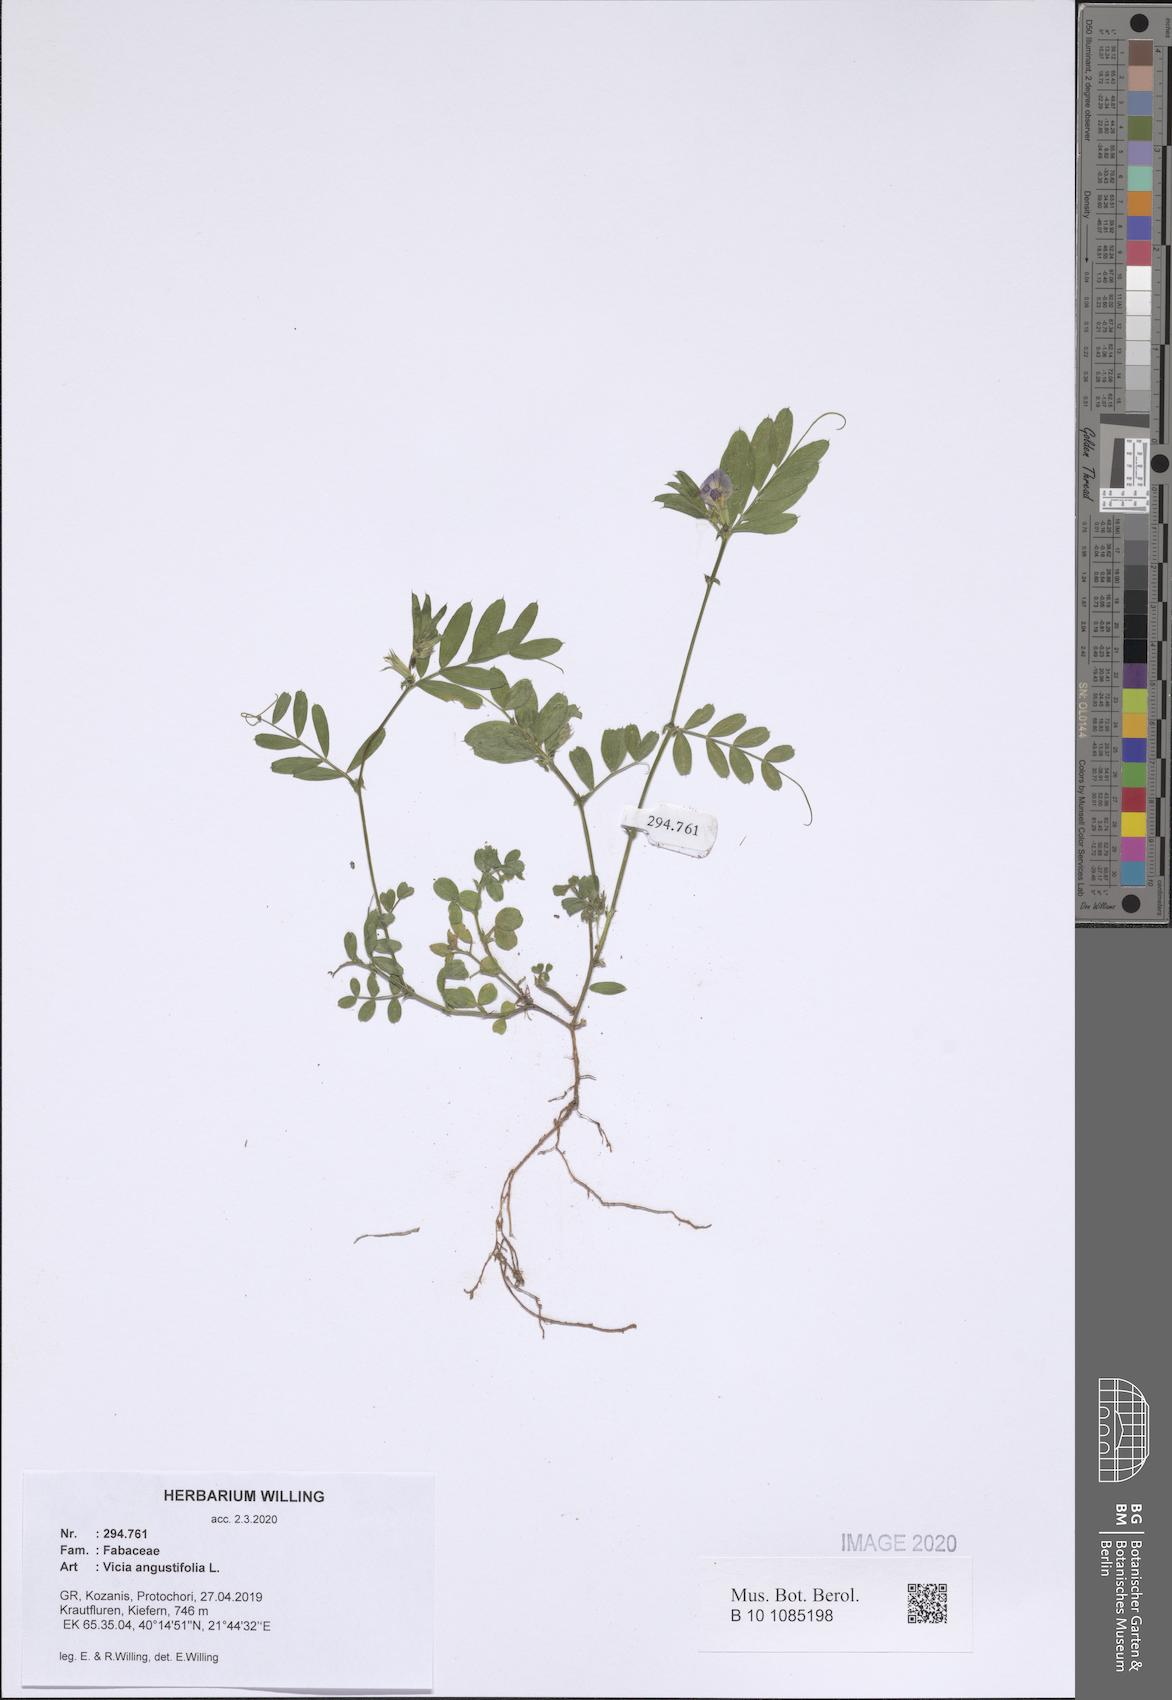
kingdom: Plantae
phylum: Tracheophyta
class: Magnoliopsida
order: Fabales
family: Fabaceae
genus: Vicia
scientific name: Vicia sativa
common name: Garden vetch
